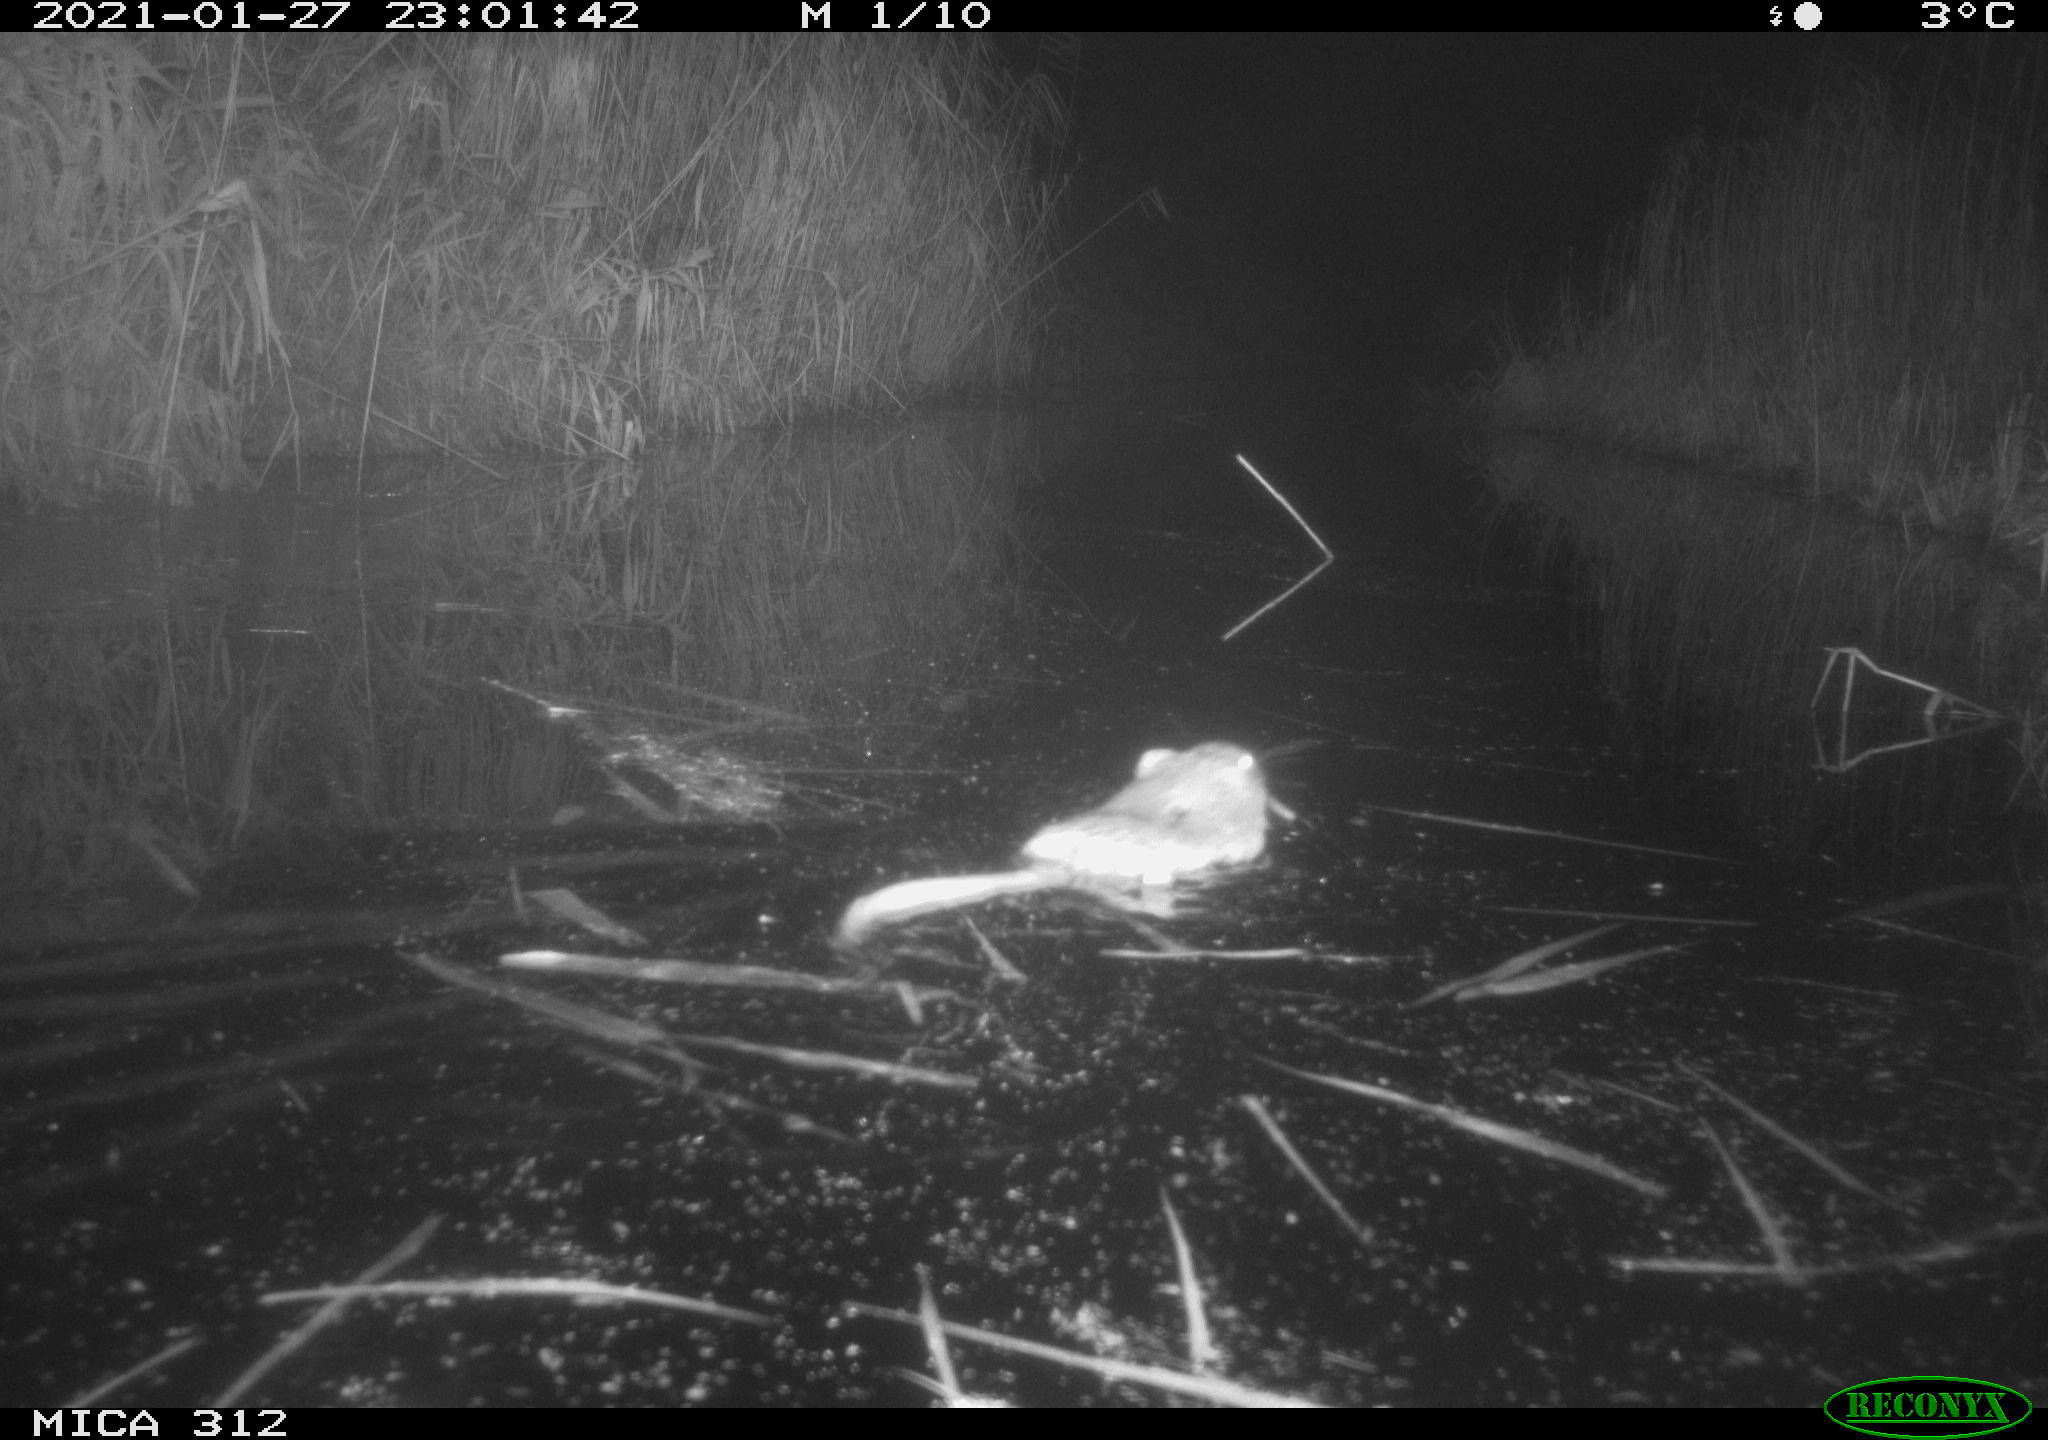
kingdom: Animalia
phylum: Chordata
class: Mammalia
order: Rodentia
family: Cricetidae
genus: Ondatra
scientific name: Ondatra zibethicus
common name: Muskrat
